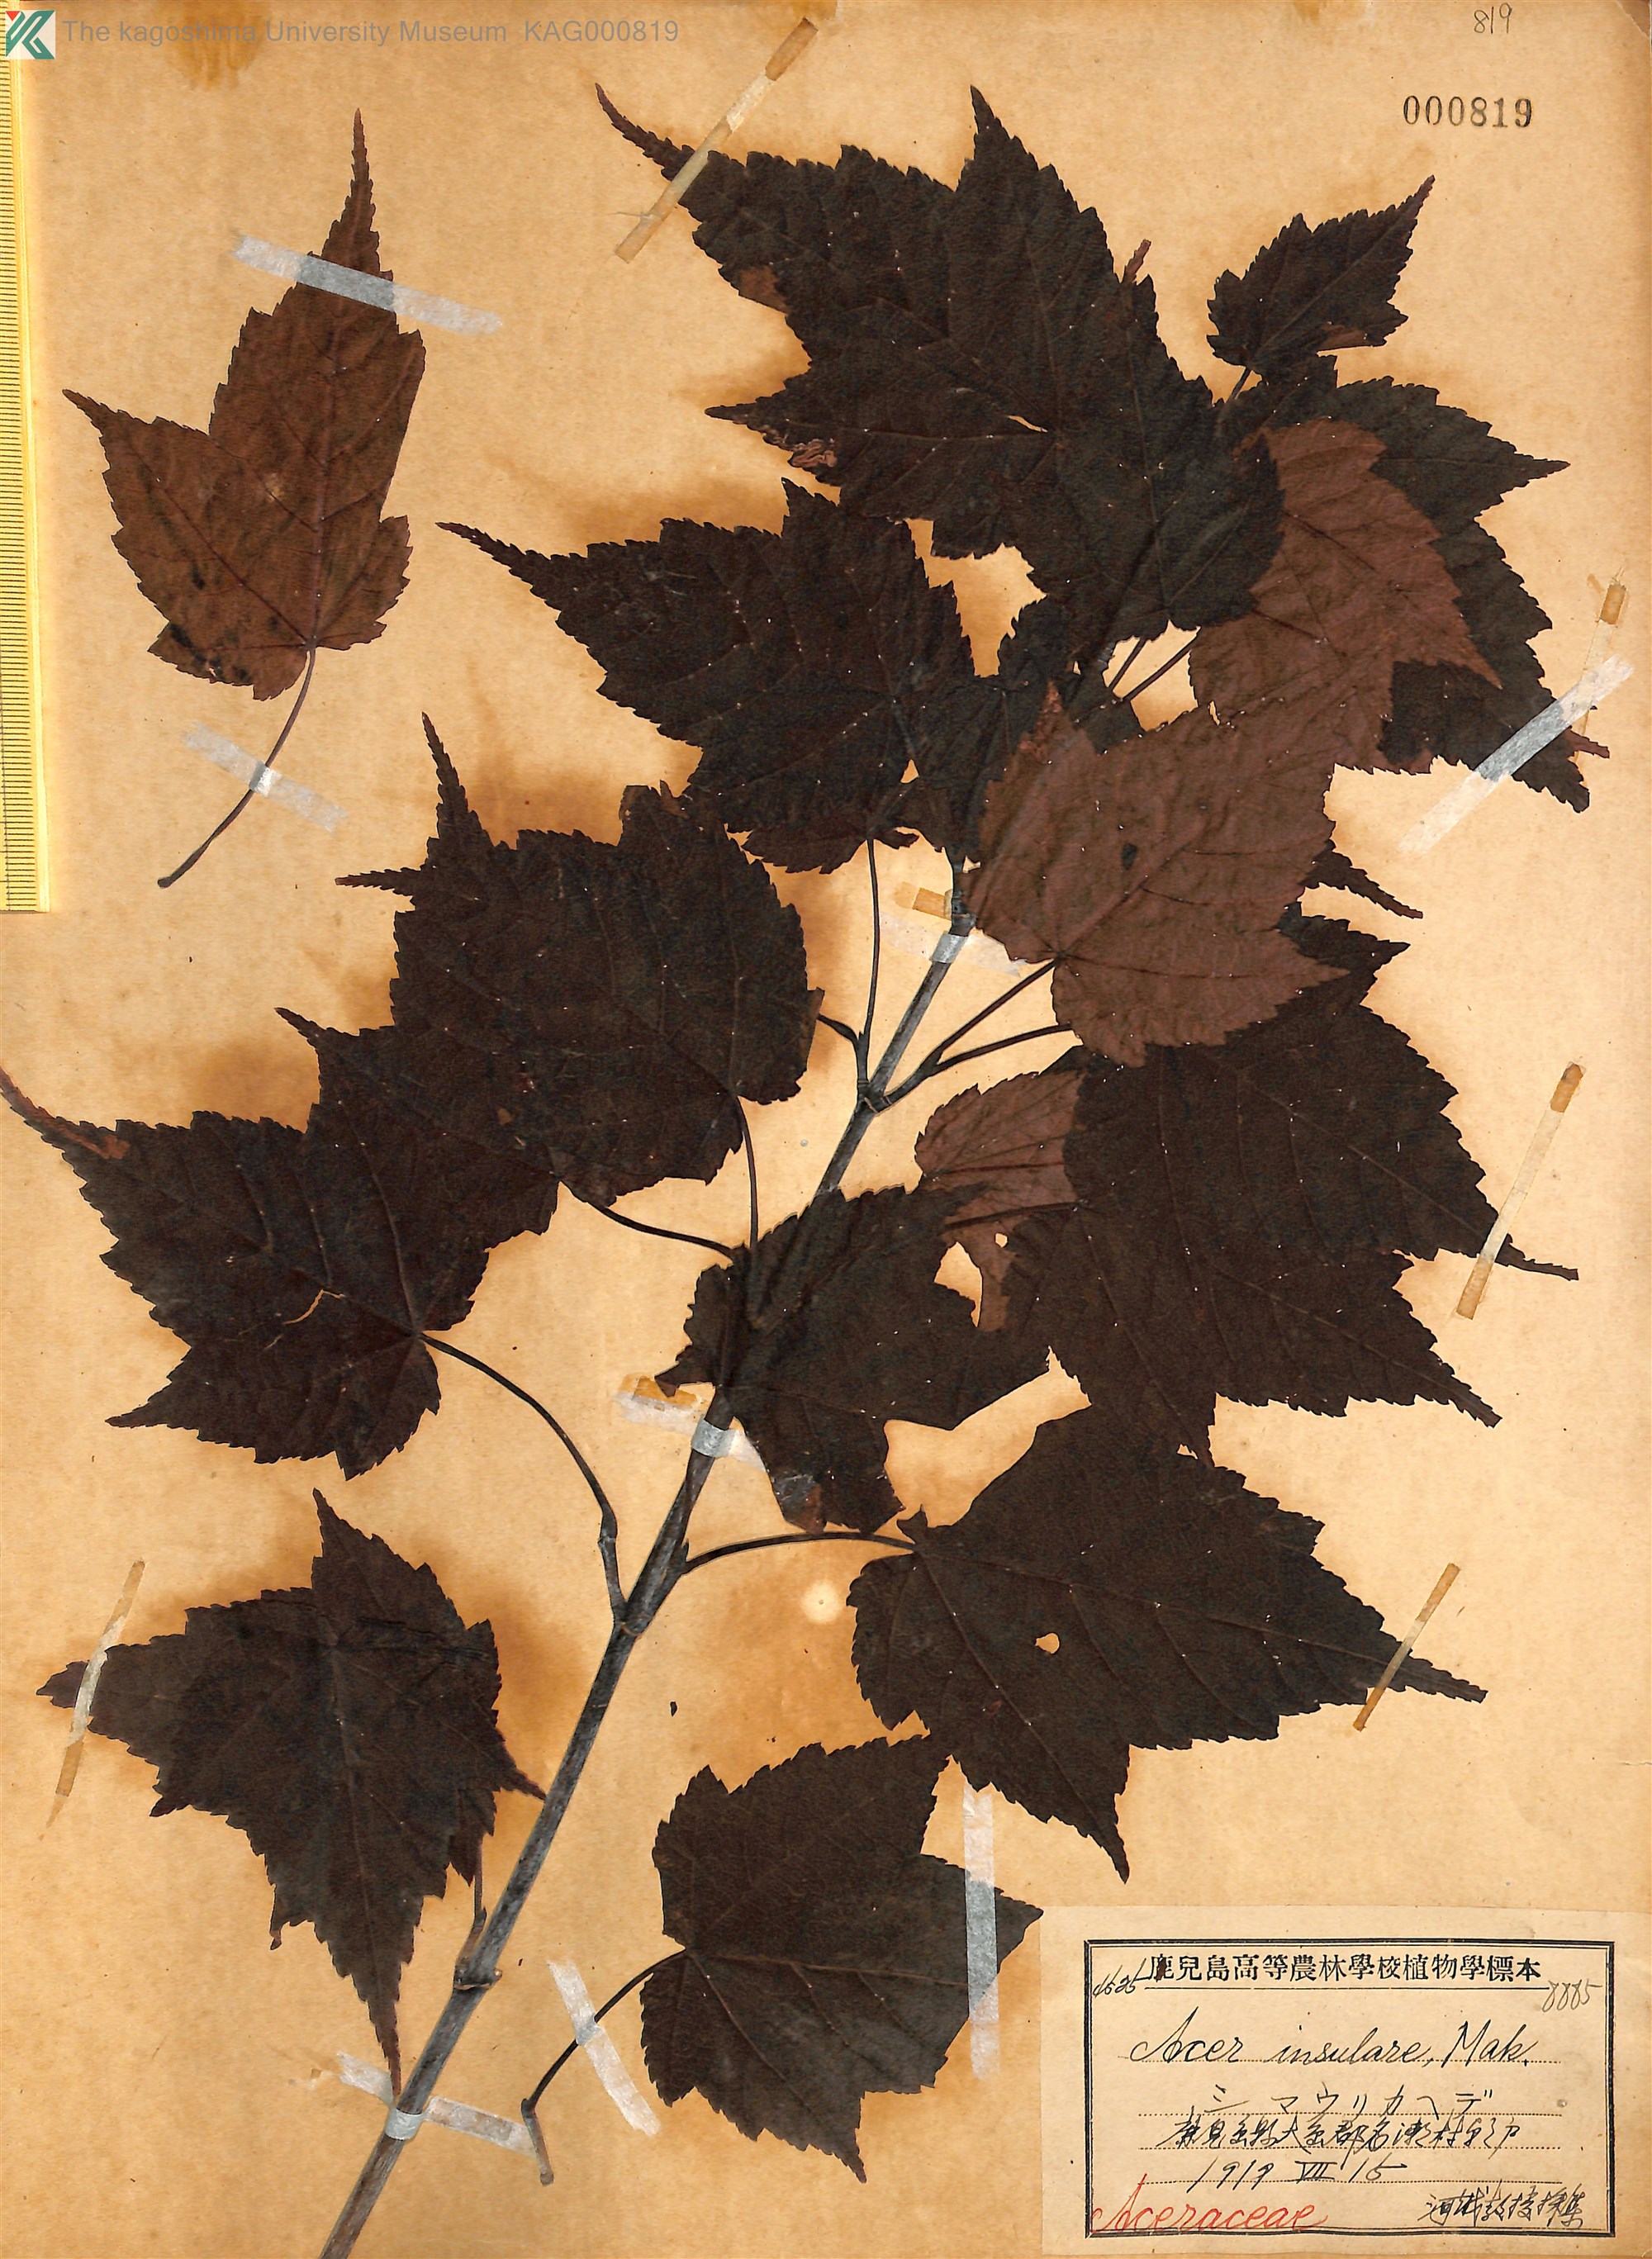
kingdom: Plantae
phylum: Tracheophyta
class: Magnoliopsida
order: Sapindales
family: Sapindaceae
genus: Acer
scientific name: Acer caudatifolium
